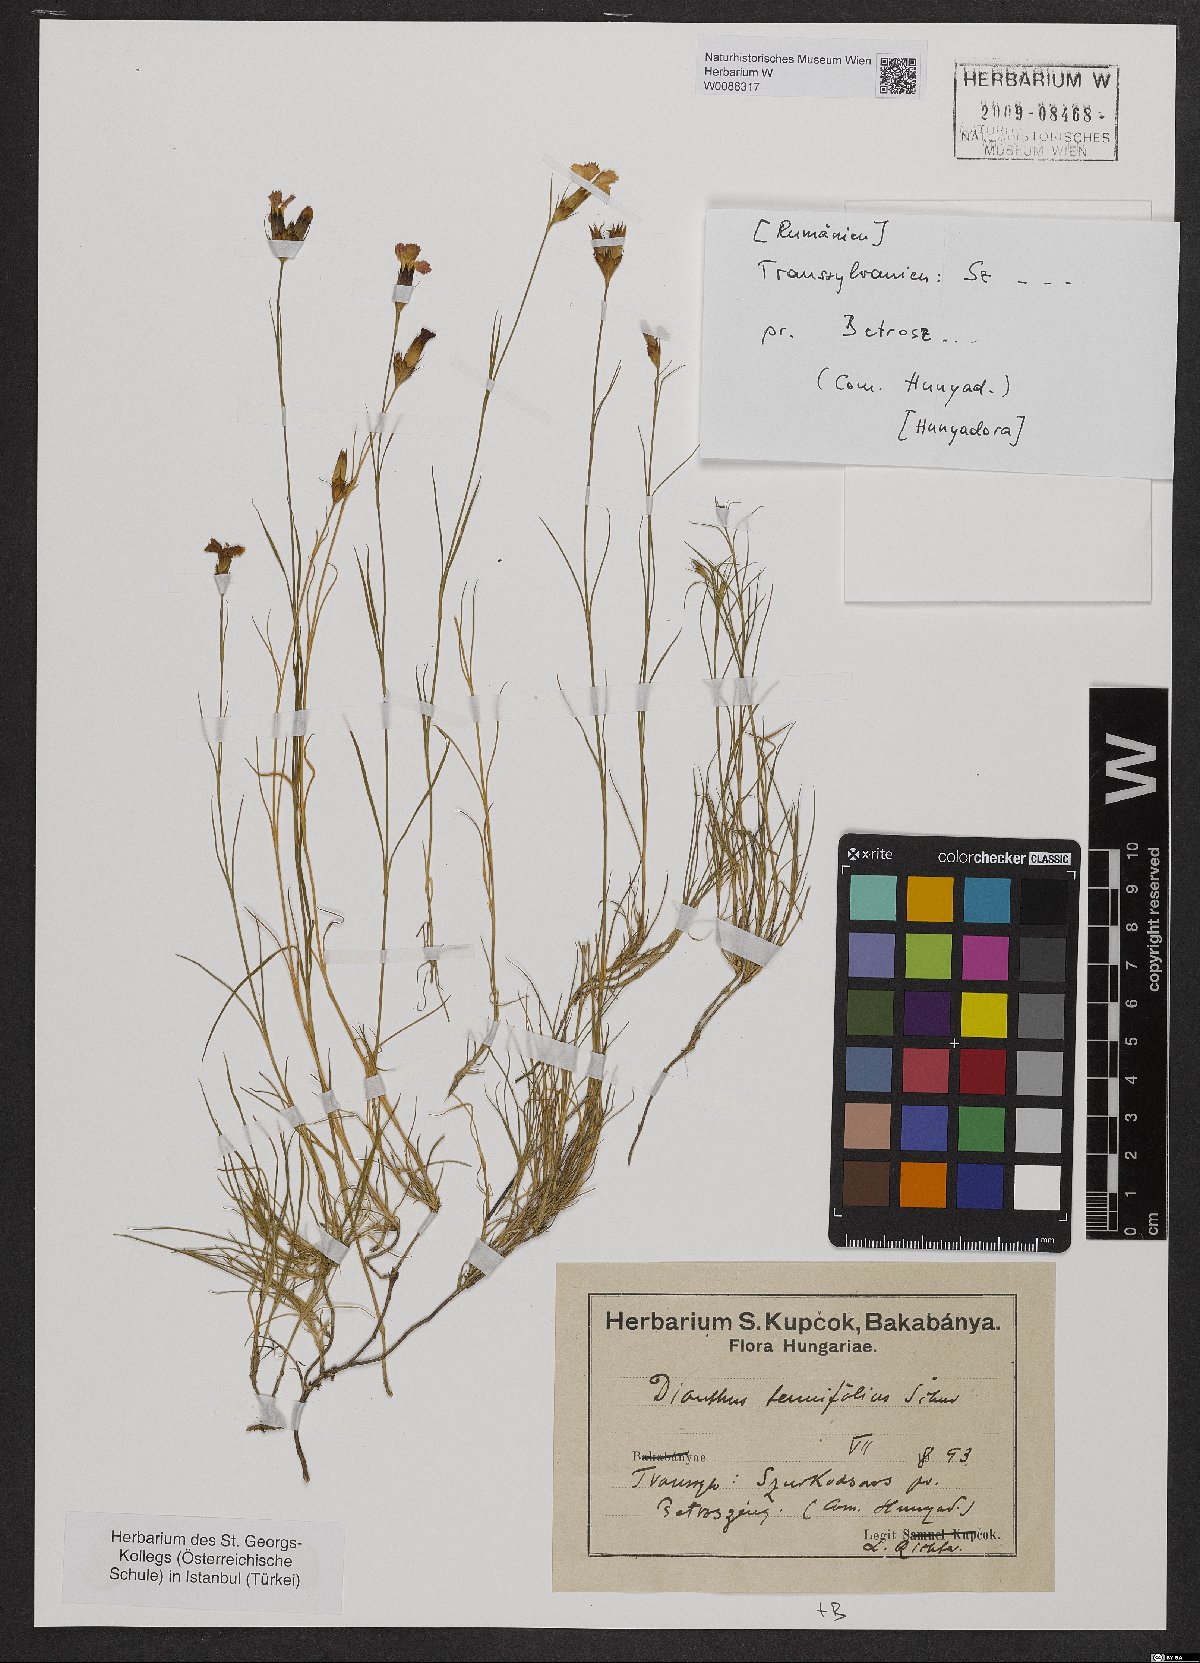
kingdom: Plantae
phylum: Tracheophyta
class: Magnoliopsida
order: Caryophyllales
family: Caryophyllaceae
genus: Dianthus
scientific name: Dianthus carthusianorum
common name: Carthusian pink
